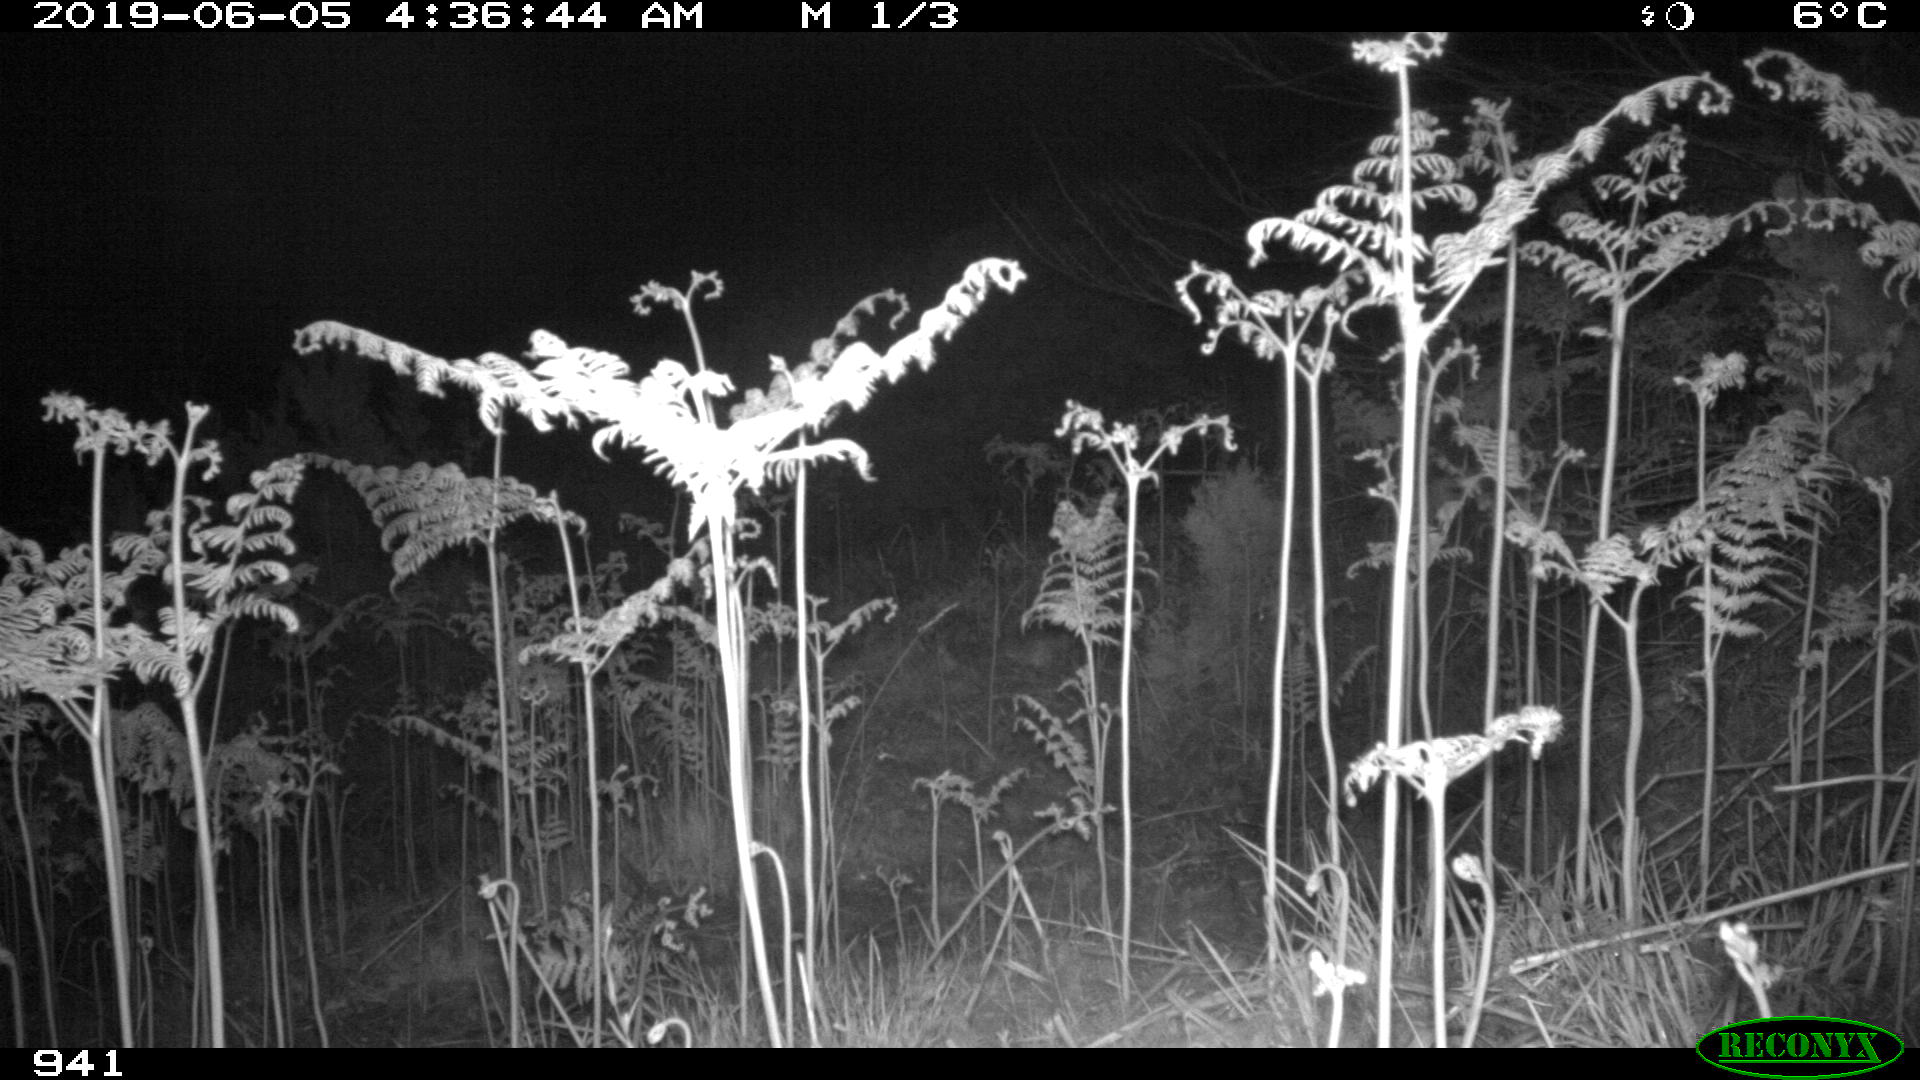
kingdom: Animalia
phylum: Chordata
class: Mammalia
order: Perissodactyla
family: Equidae
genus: Equus
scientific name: Equus caballus
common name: Horse
